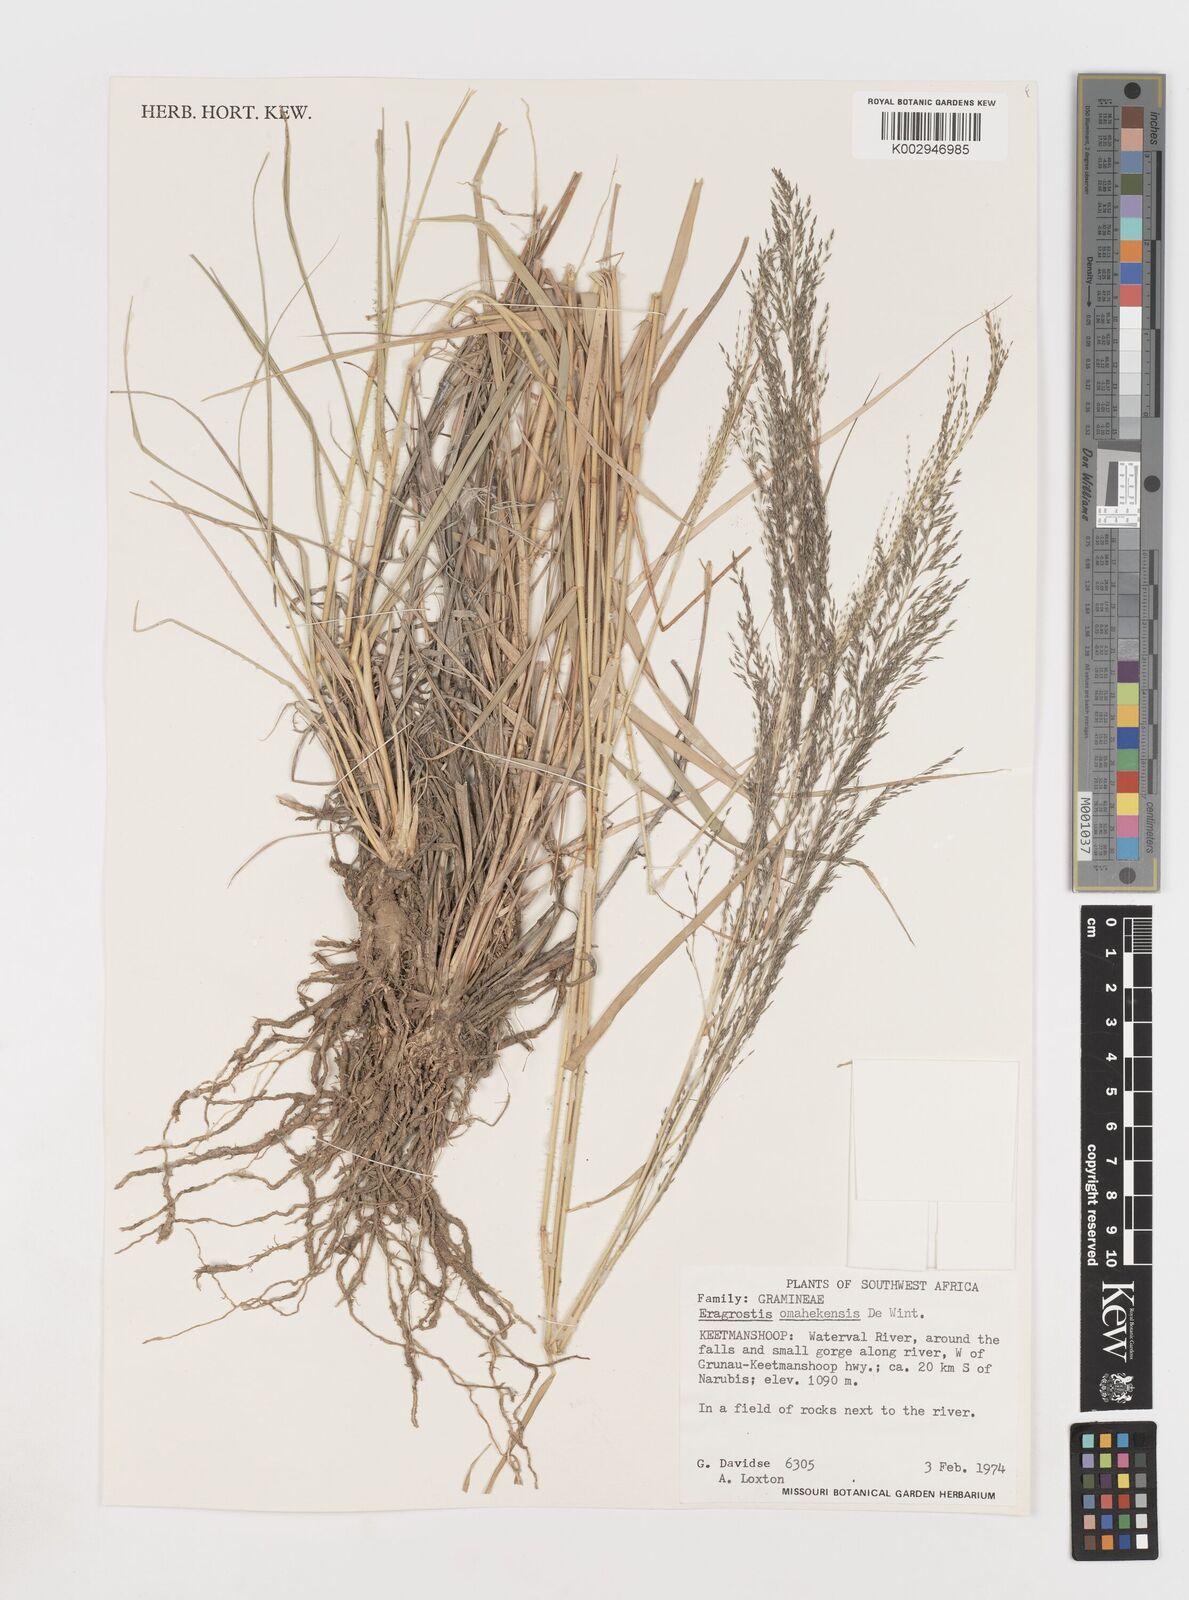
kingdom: Plantae
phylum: Tracheophyta
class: Liliopsida
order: Poales
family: Poaceae
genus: Eragrostis
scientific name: Eragrostis omahekensis
